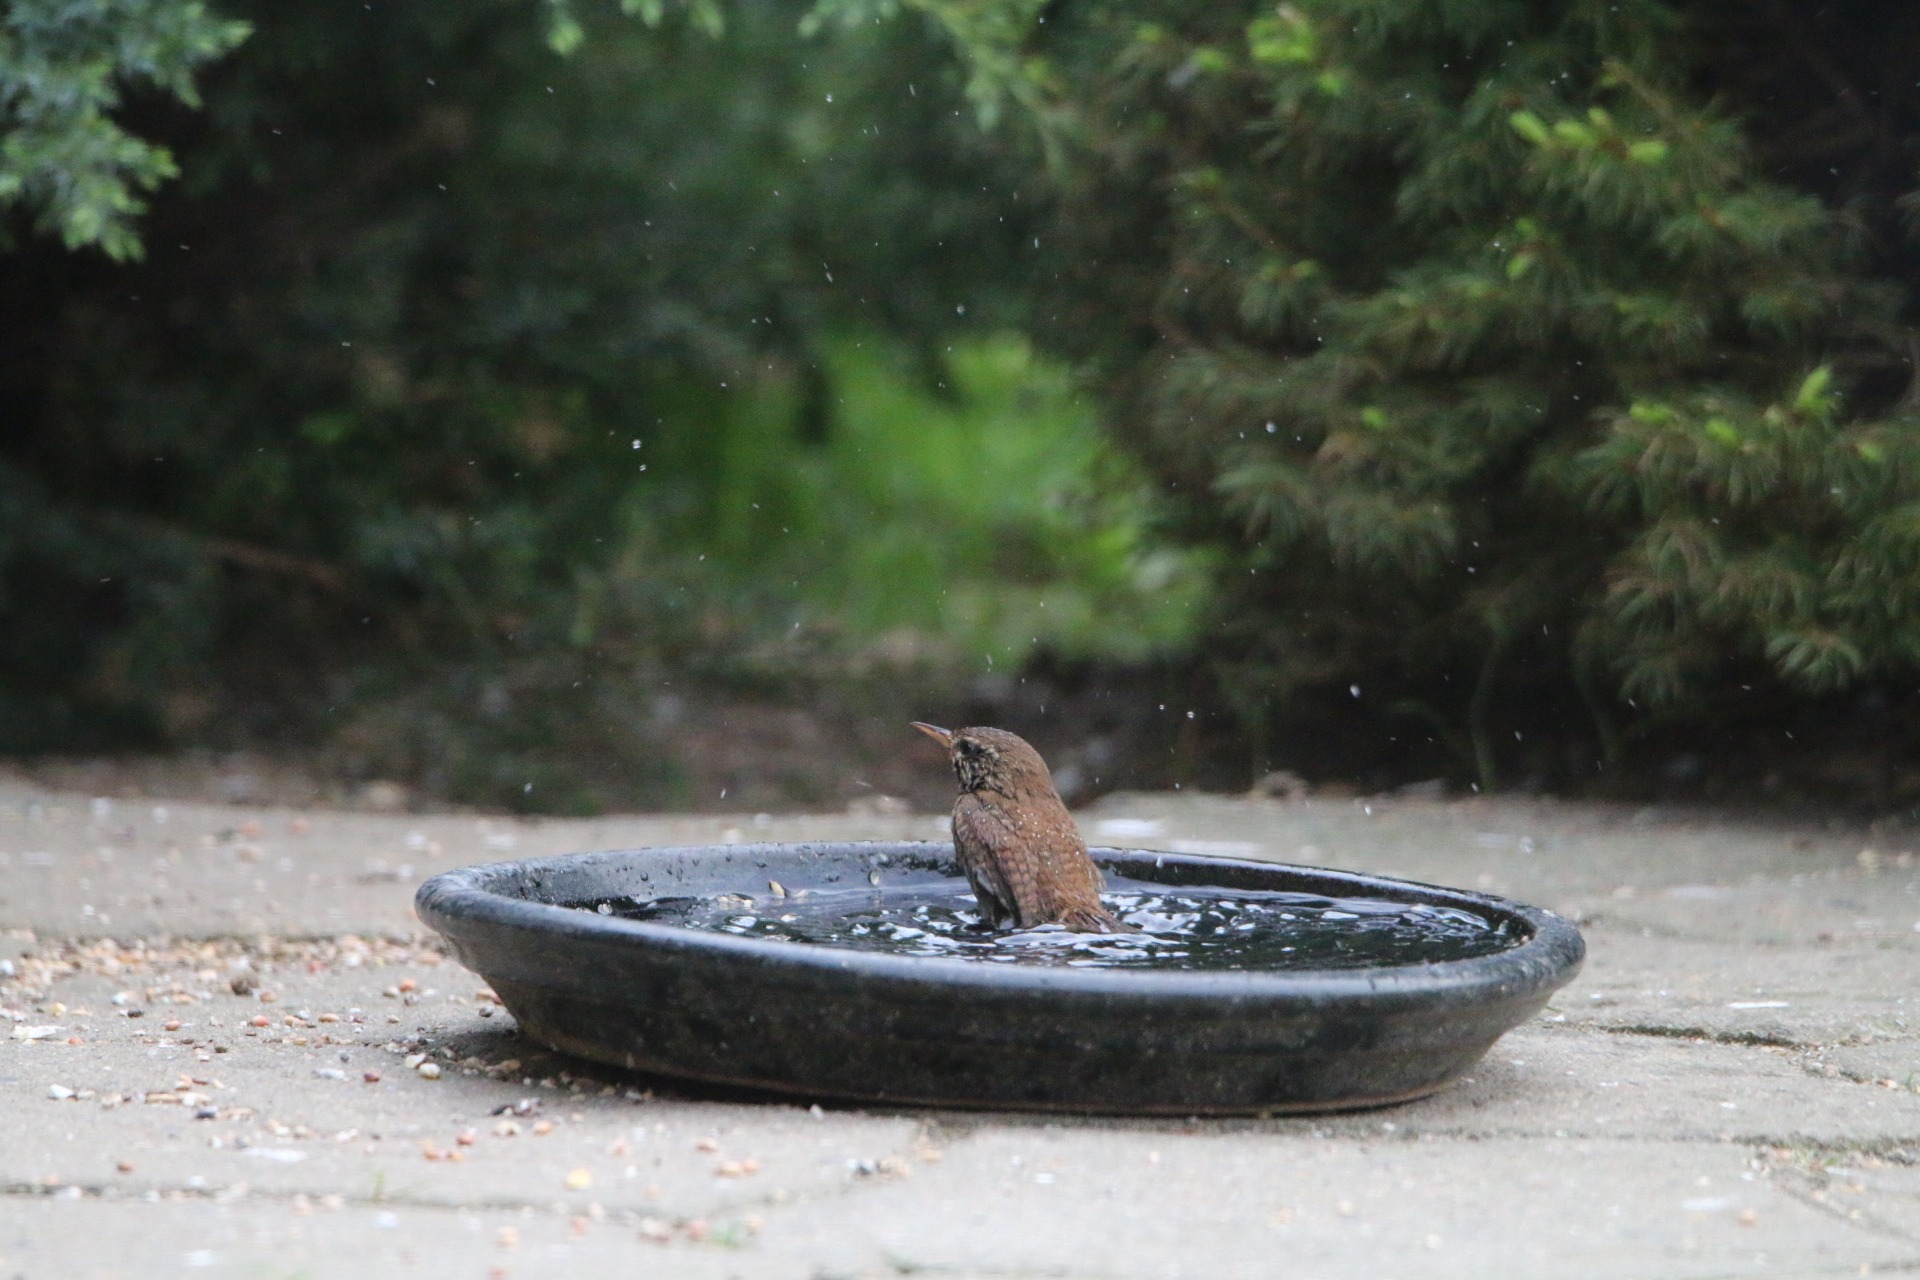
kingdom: Animalia
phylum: Chordata
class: Aves
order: Passeriformes
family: Troglodytidae
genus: Troglodytes
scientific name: Troglodytes troglodytes
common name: Gærdesmutte
